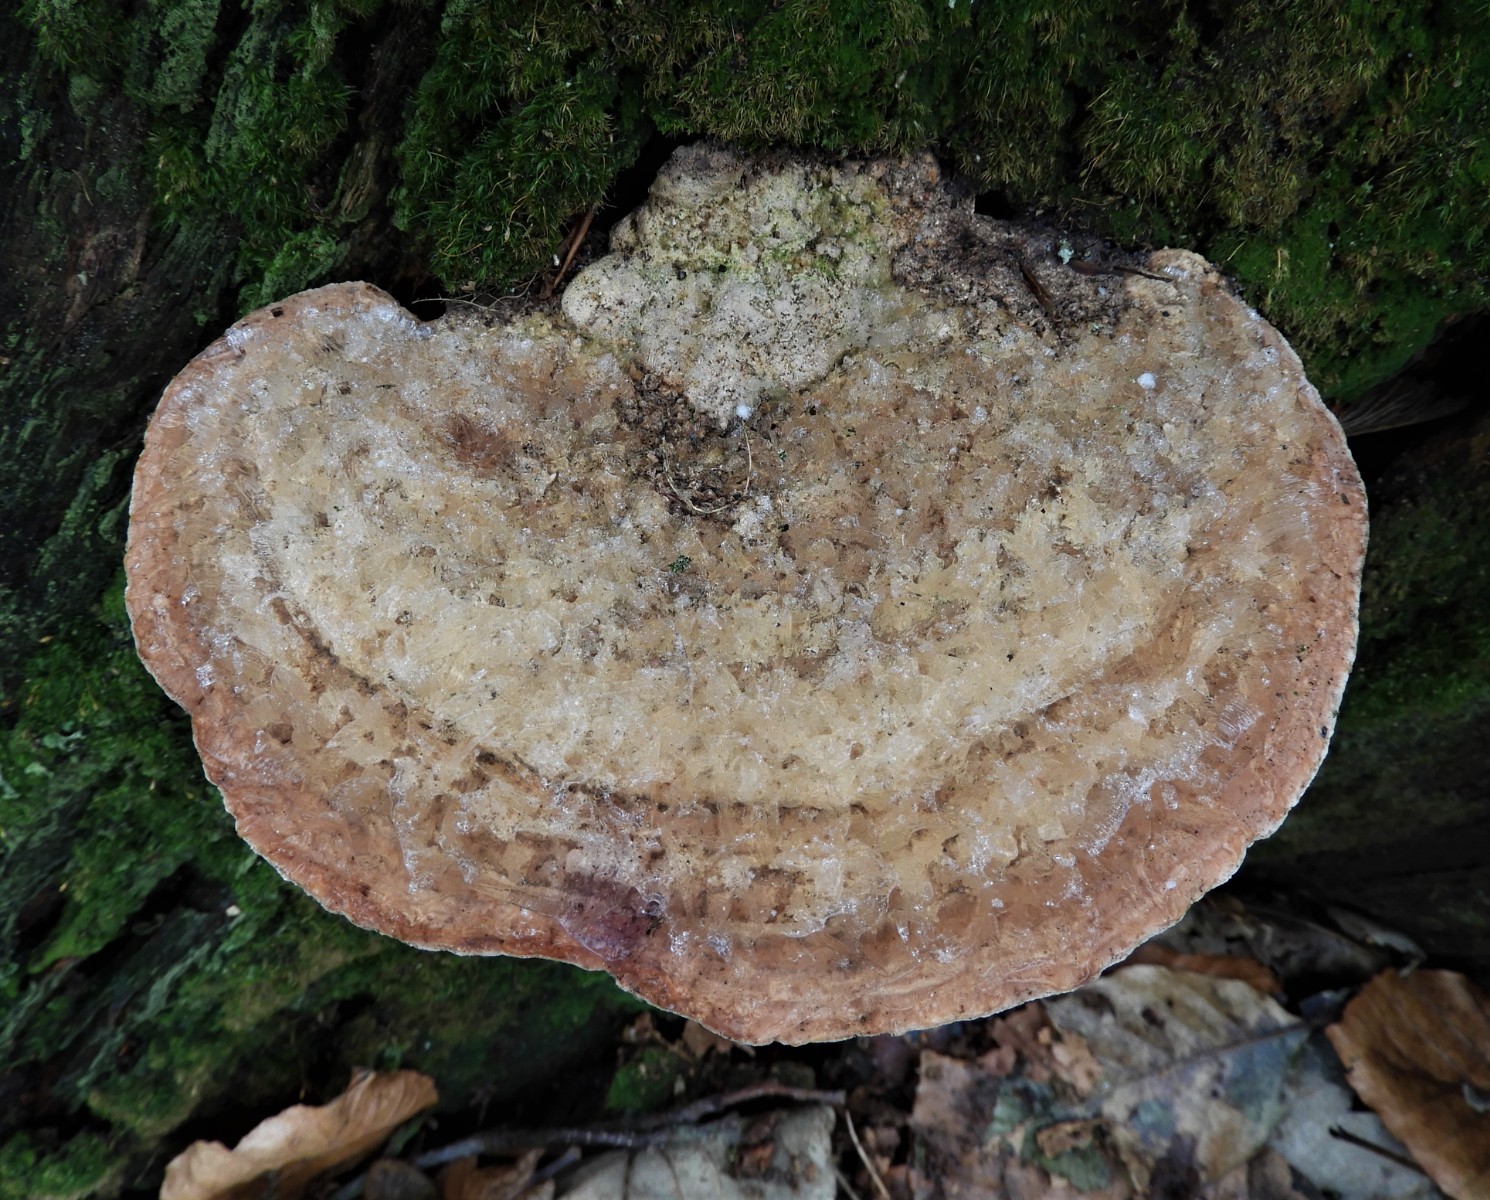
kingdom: Fungi
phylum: Basidiomycota
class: Agaricomycetes
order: Polyporales
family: Fomitopsidaceae
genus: Daedalea
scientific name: Daedalea quercina
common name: ege-labyrintsvamp
